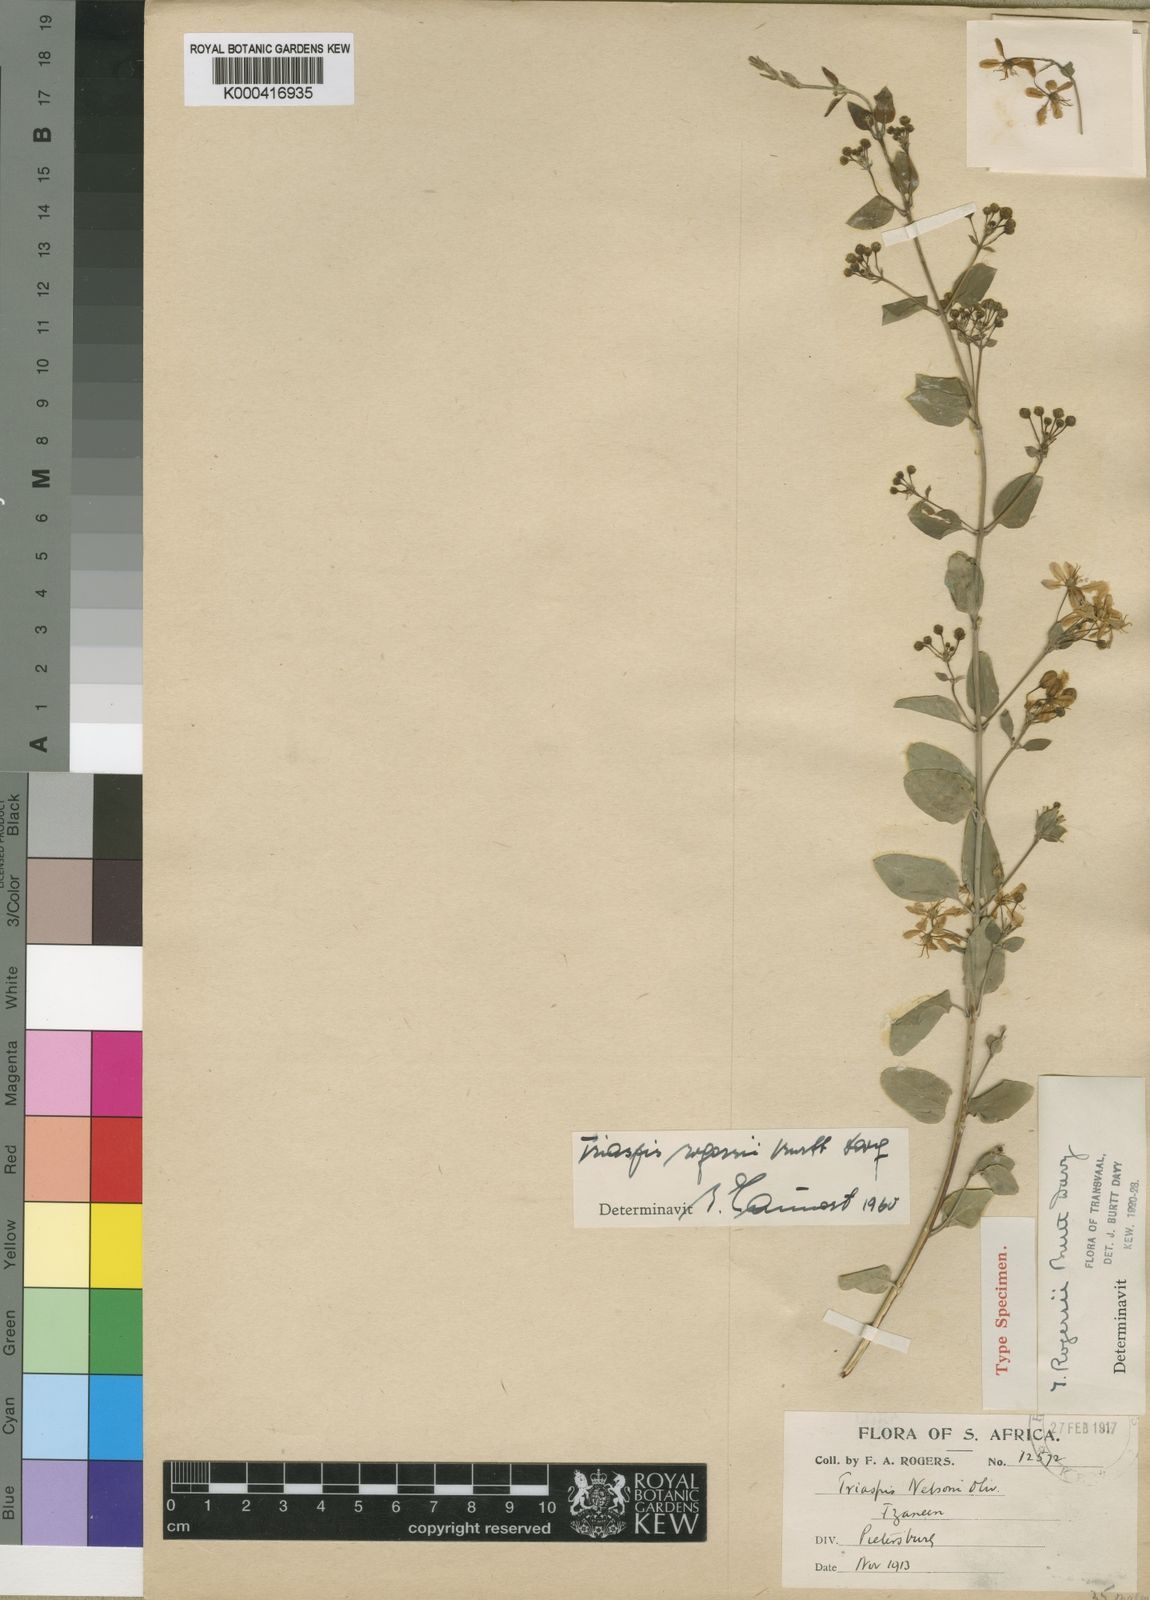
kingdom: Plantae
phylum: Tracheophyta
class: Magnoliopsida
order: Malpighiales
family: Malpighiaceae
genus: Triaspis
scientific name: Triaspis hypericoides
